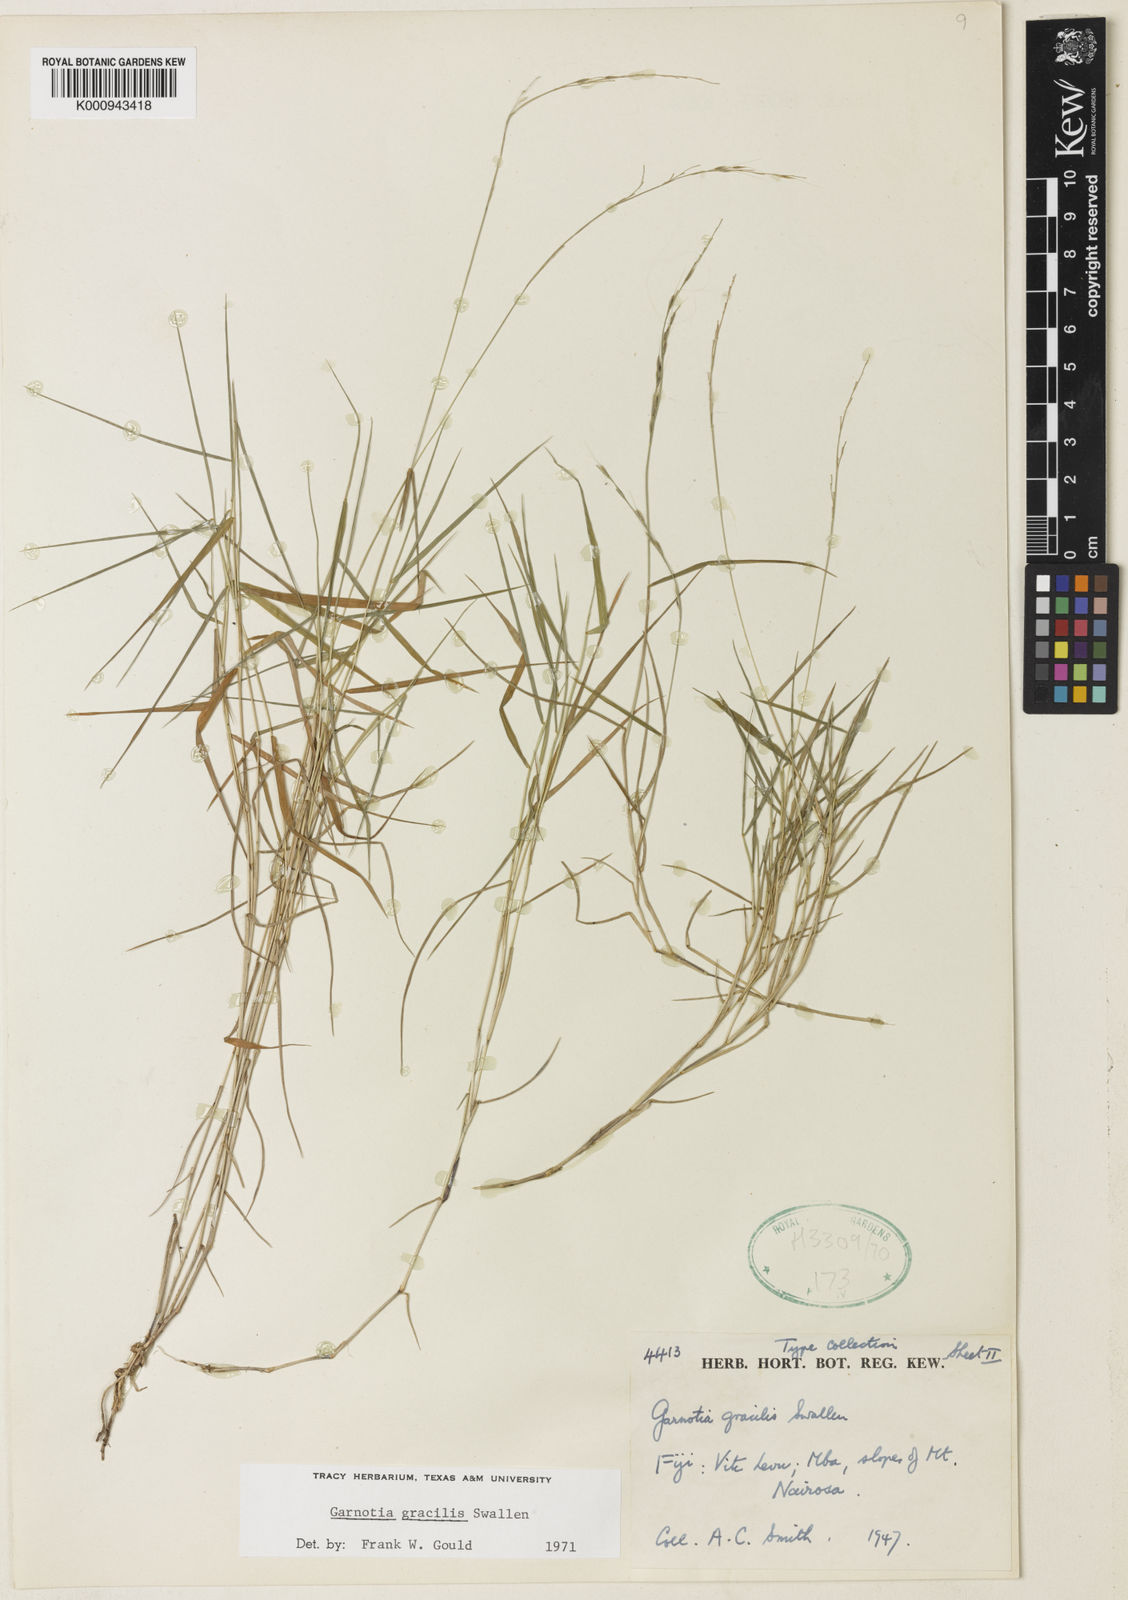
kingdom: Plantae
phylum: Tracheophyta
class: Liliopsida
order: Poales
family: Poaceae
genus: Garnotia
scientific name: Garnotia gracilis
